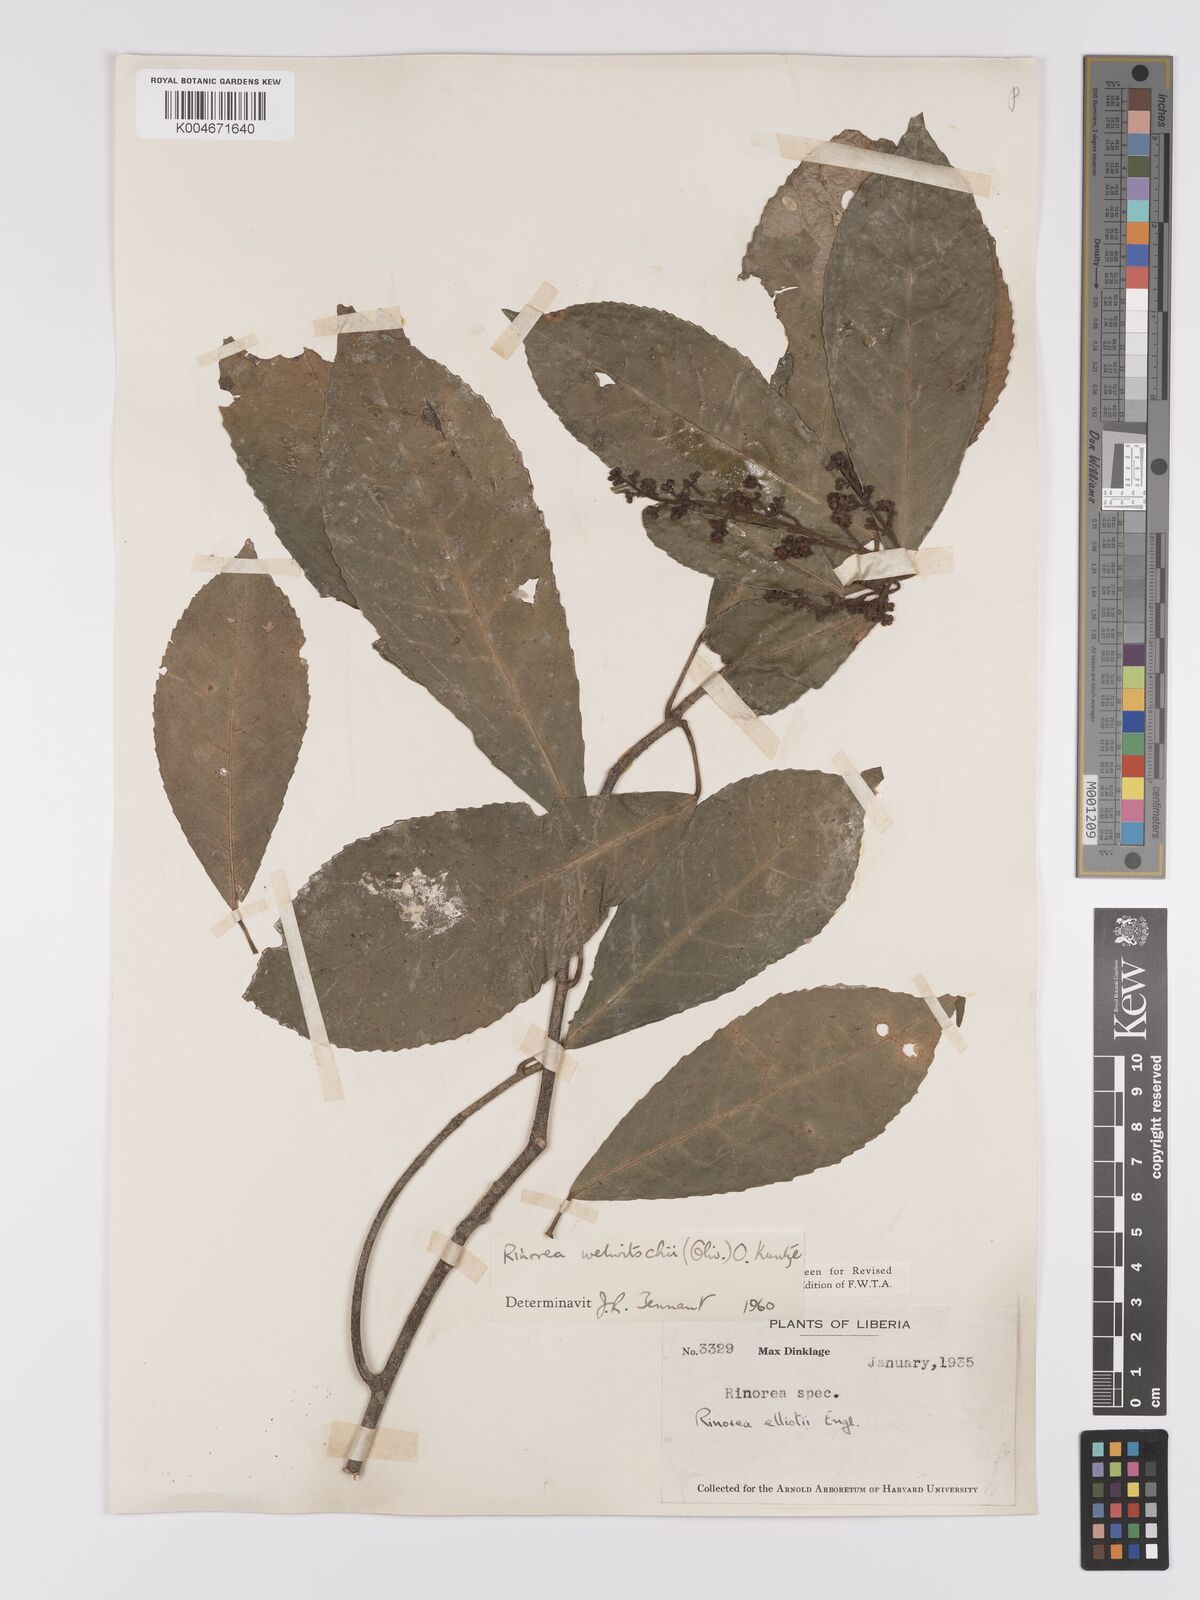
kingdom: Plantae
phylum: Tracheophyta
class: Magnoliopsida
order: Malpighiales
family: Violaceae
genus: Rinorea
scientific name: Rinorea welwitschii
